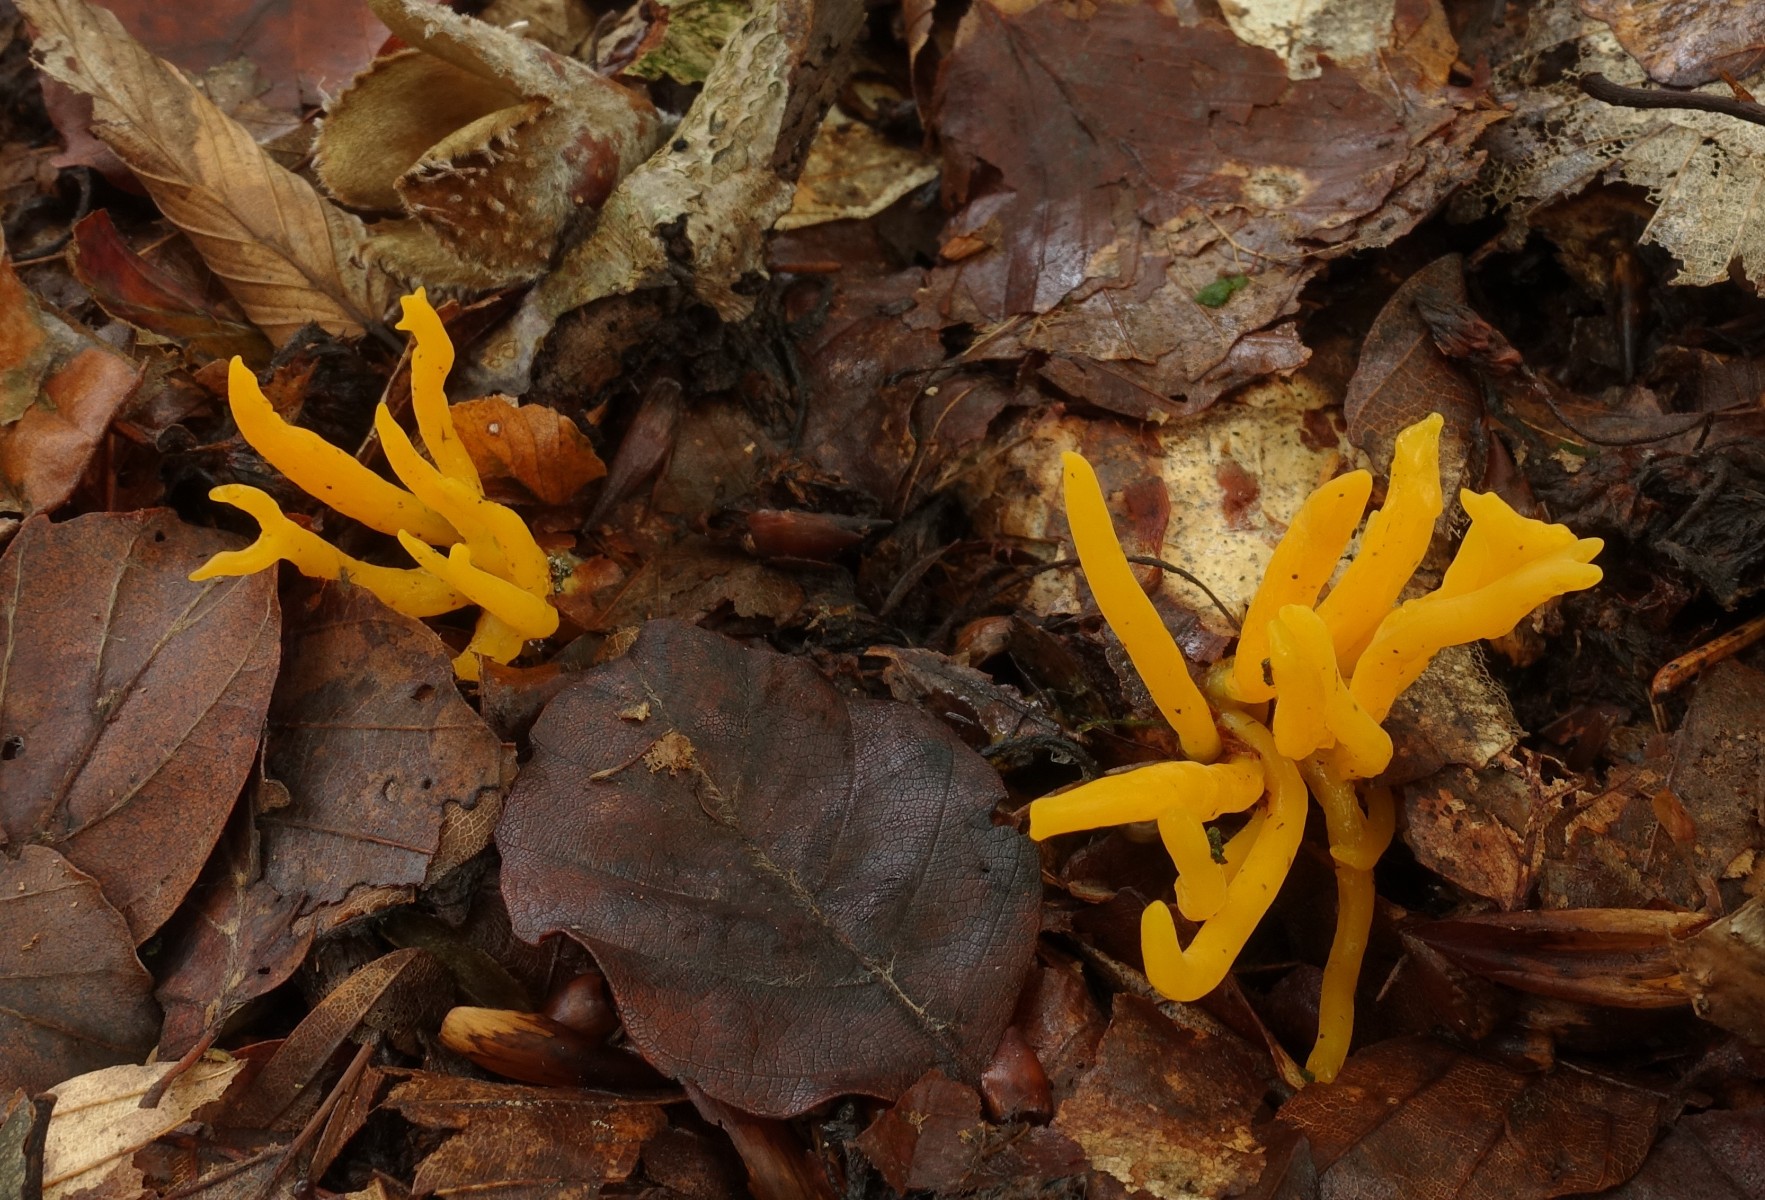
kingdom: Fungi
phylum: Basidiomycota
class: Agaricomycetes
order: Agaricales
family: Clavariaceae
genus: Clavulinopsis
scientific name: Clavulinopsis
